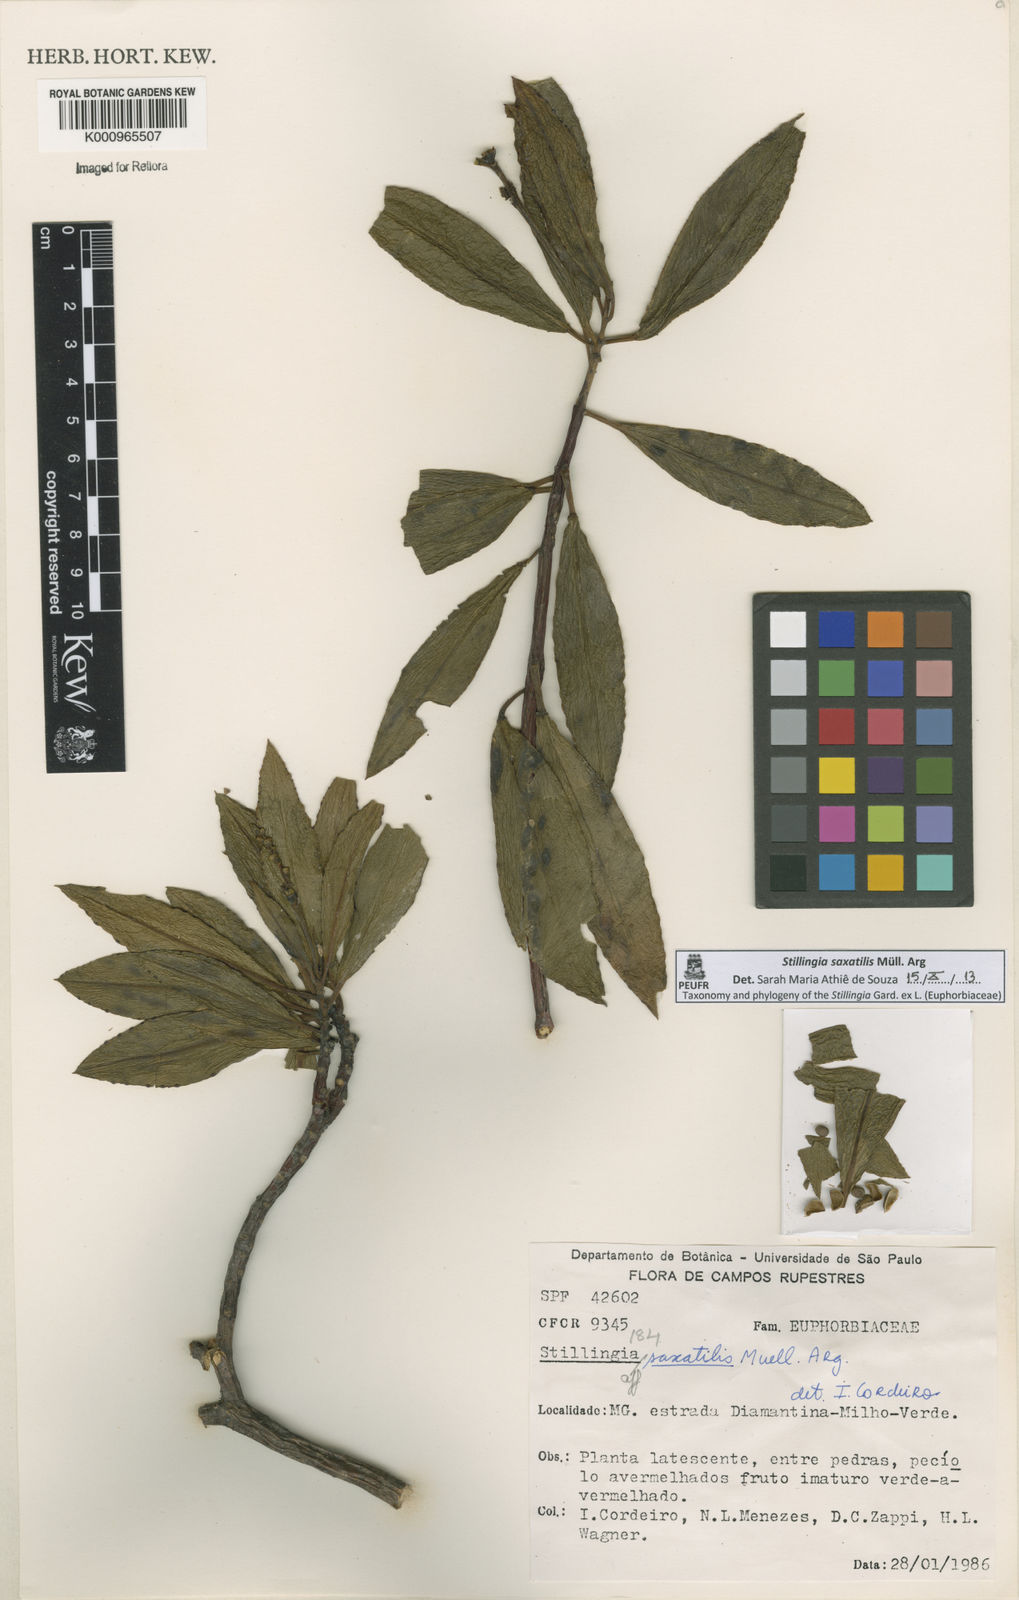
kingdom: Plantae
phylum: Tracheophyta
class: Magnoliopsida
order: Malpighiales
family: Euphorbiaceae
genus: Stillingia
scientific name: Stillingia
